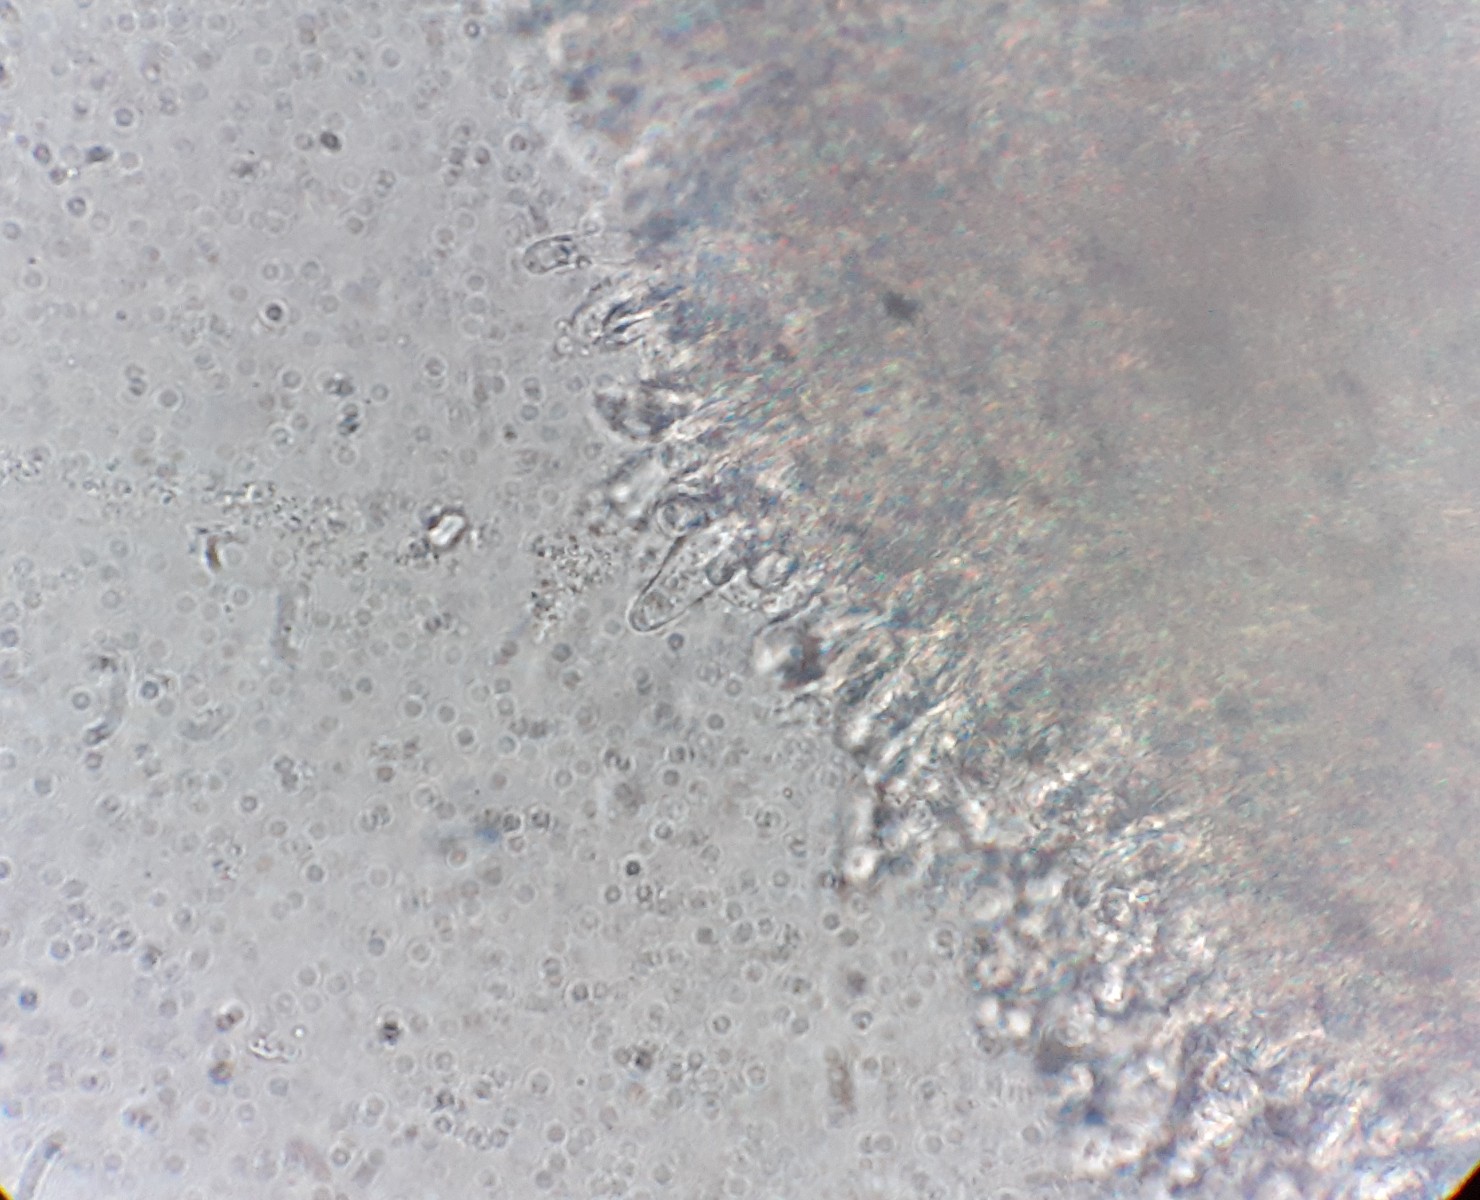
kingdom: Fungi
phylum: Basidiomycota
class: Agaricomycetes
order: Polyporales
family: Dacryobolaceae
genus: Dacryobolus
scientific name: Dacryobolus karstenii
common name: glat vulkanskorpe
